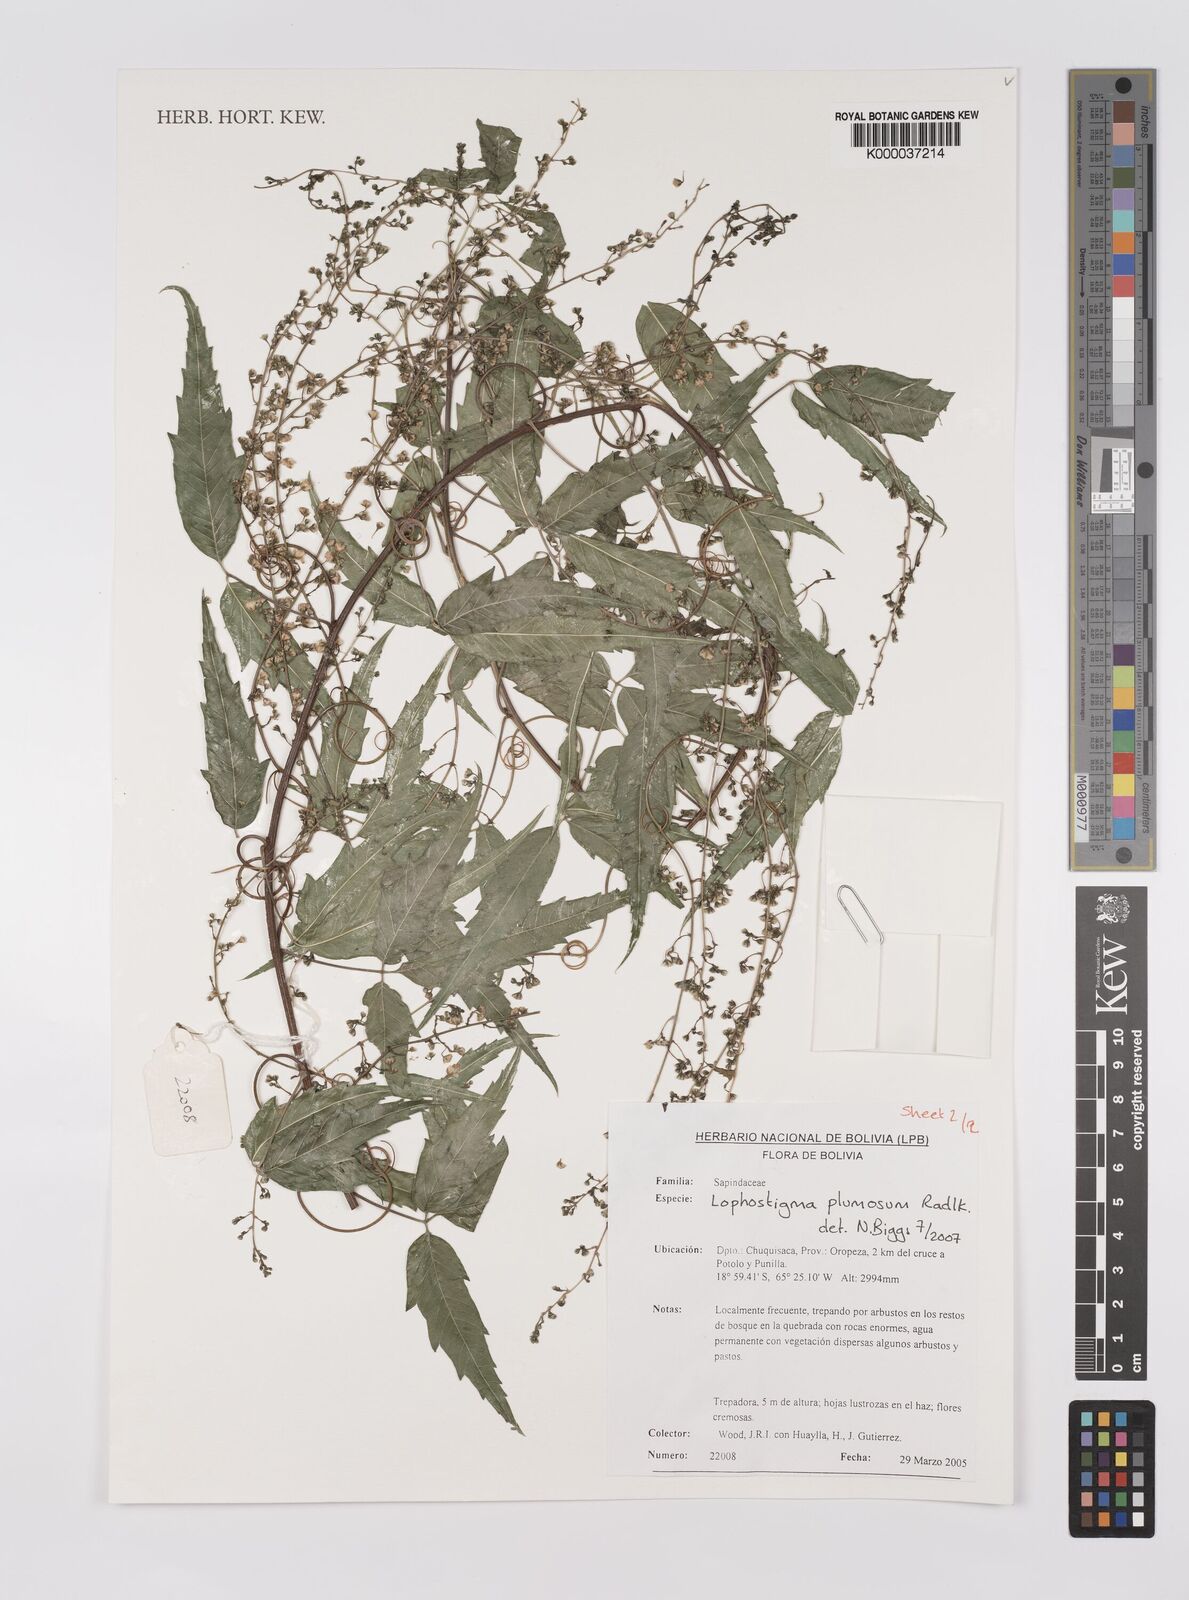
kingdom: Plantae
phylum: Tracheophyta
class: Magnoliopsida
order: Sapindales
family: Sapindaceae
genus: Lophostigma
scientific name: Lophostigma plumosum
